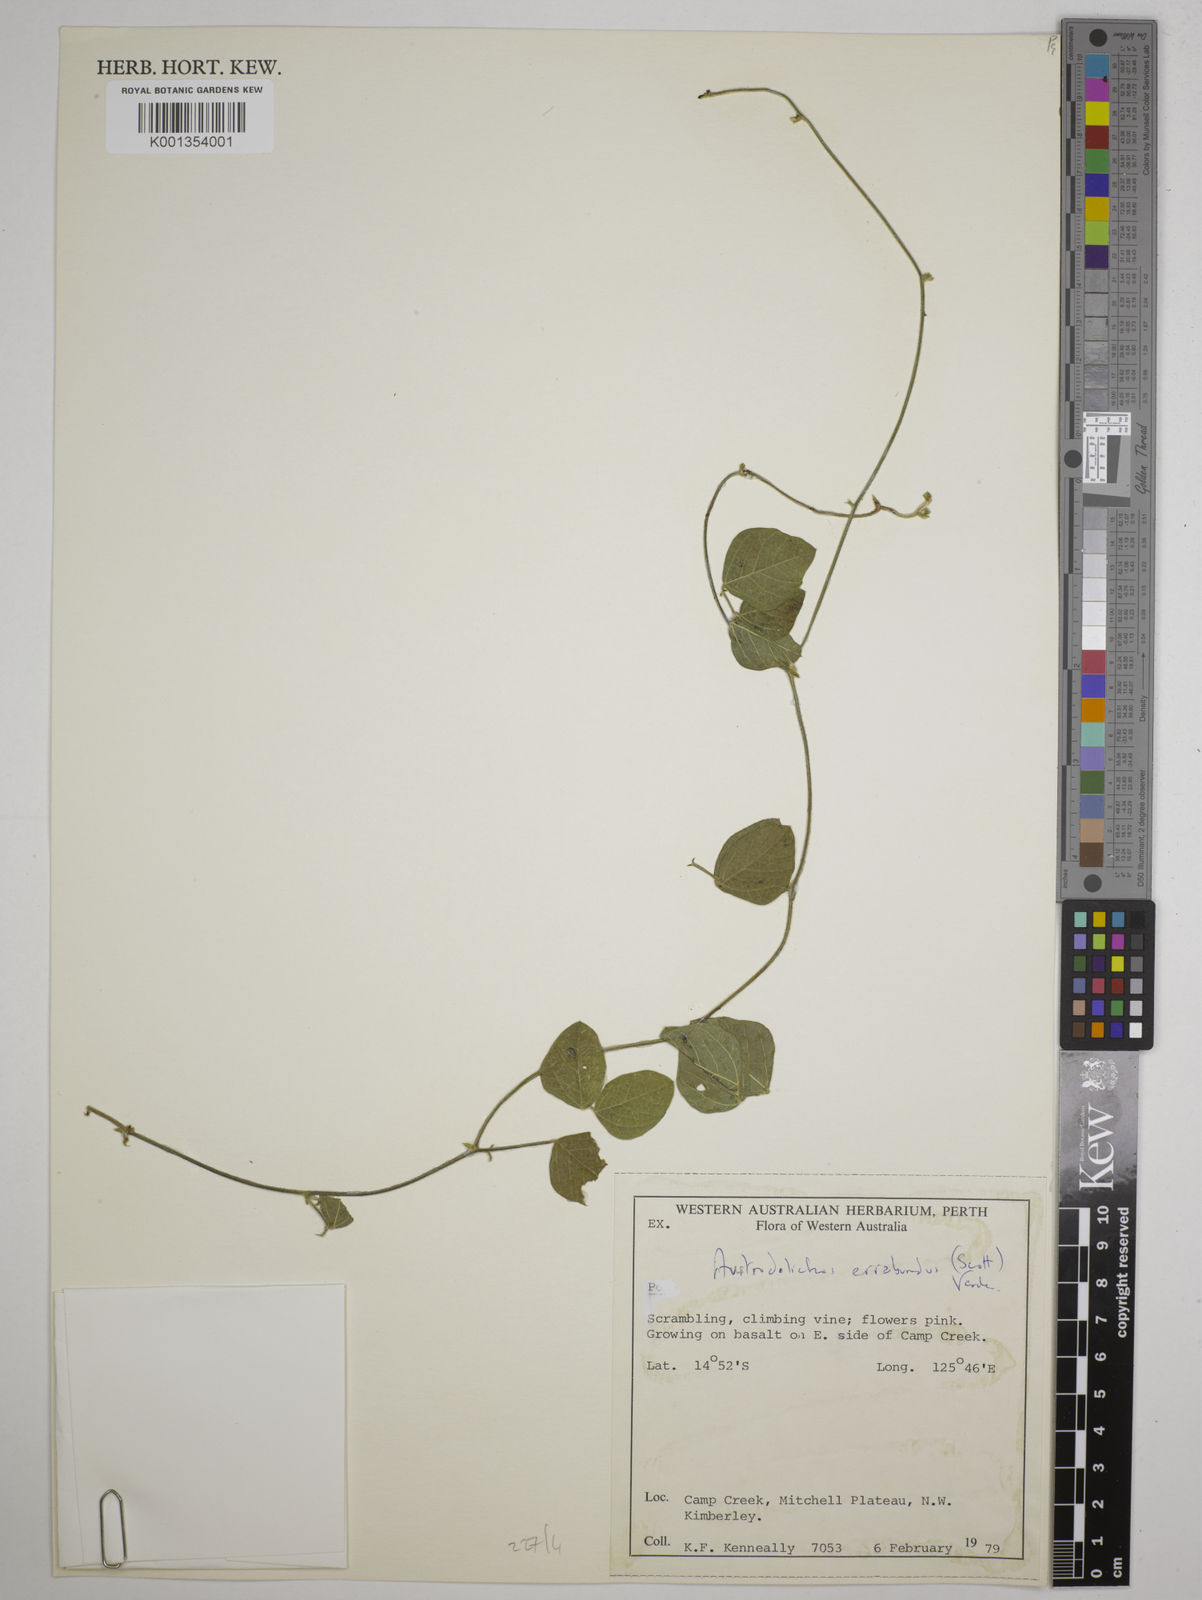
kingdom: Plantae
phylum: Tracheophyta
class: Magnoliopsida
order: Fabales
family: Fabaceae
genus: Austrodolichos
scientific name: Austrodolichos errabundus
